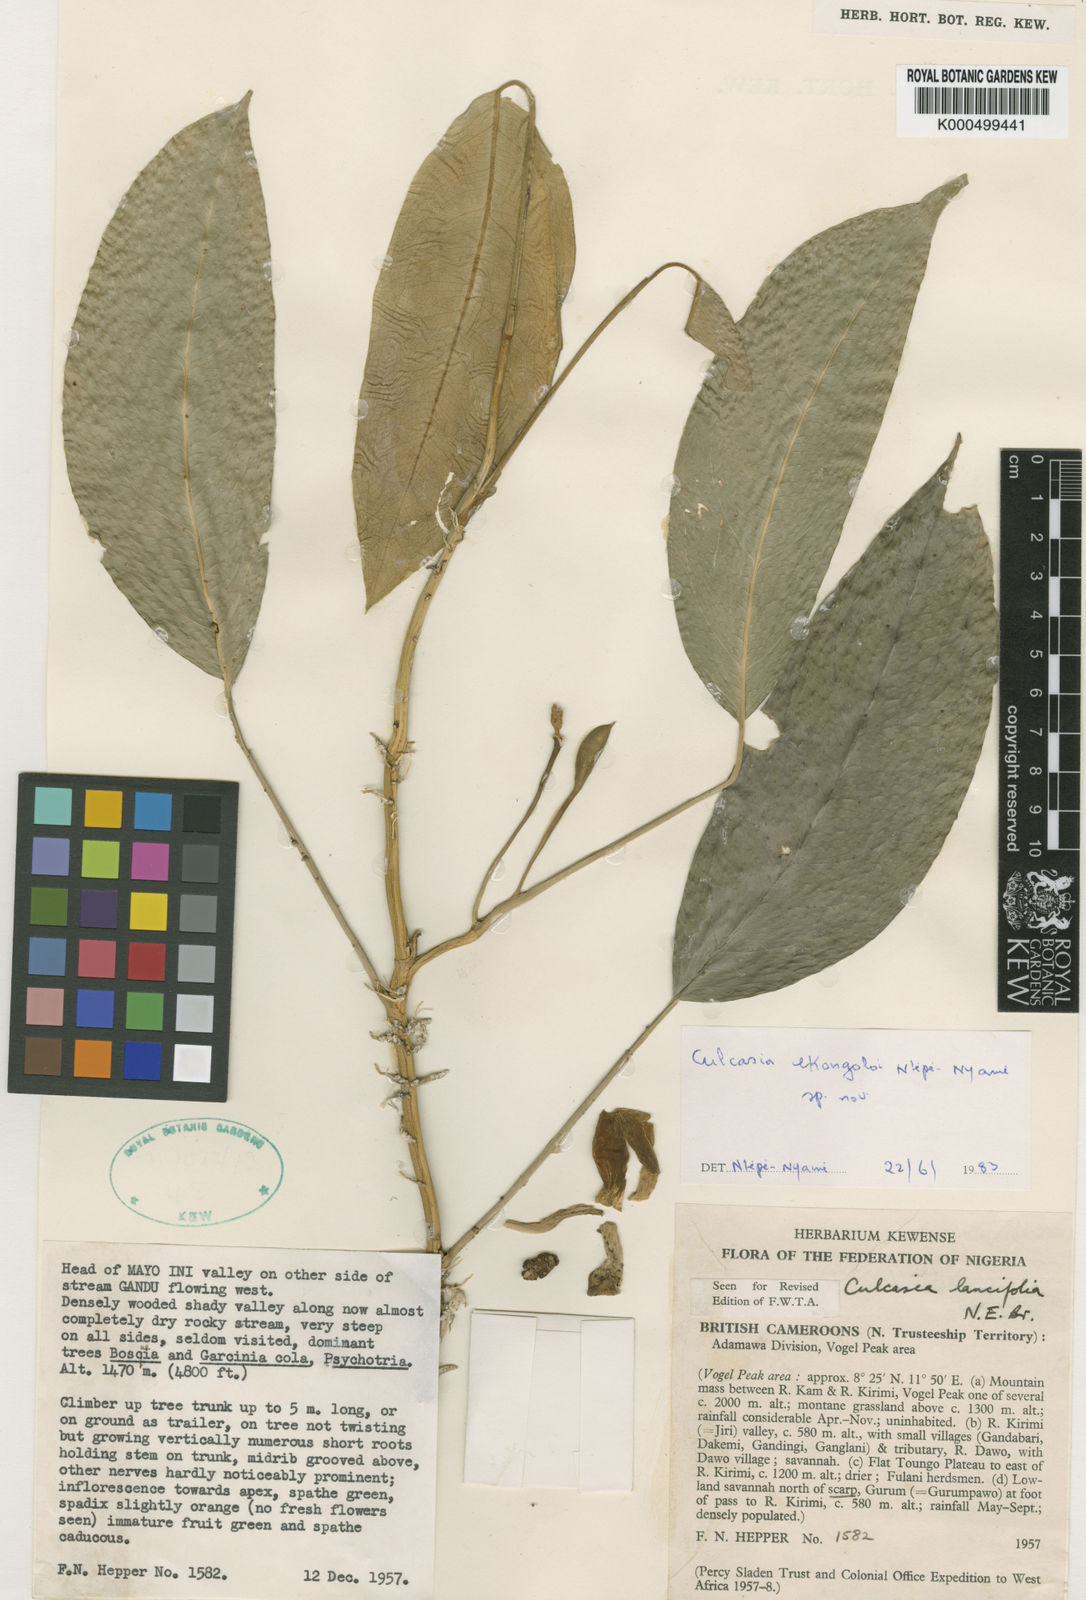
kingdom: Plantae
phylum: Tracheophyta
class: Liliopsida
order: Alismatales
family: Araceae
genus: Culcasia
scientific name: Culcasia ekongoloi
